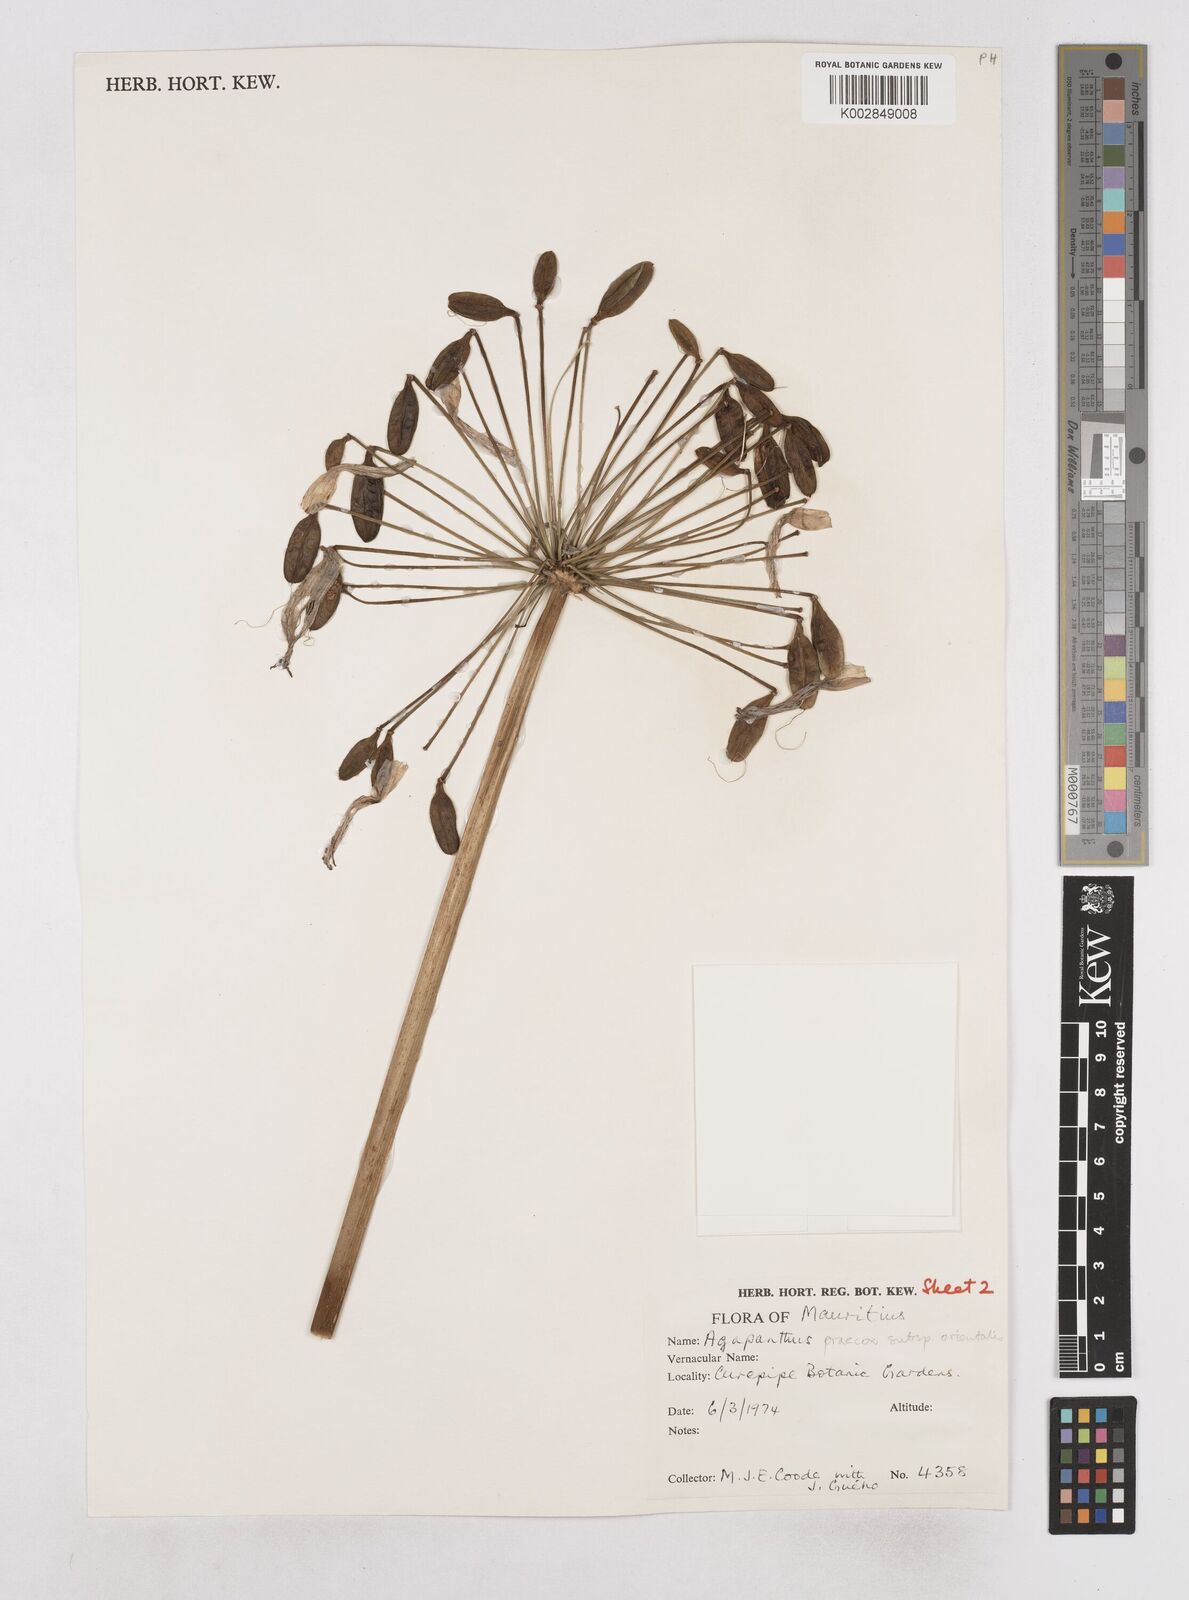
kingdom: Plantae
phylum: Tracheophyta
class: Liliopsida
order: Asparagales
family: Amaryllidaceae
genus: Agapanthus
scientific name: Agapanthus praecox
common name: African-lily
